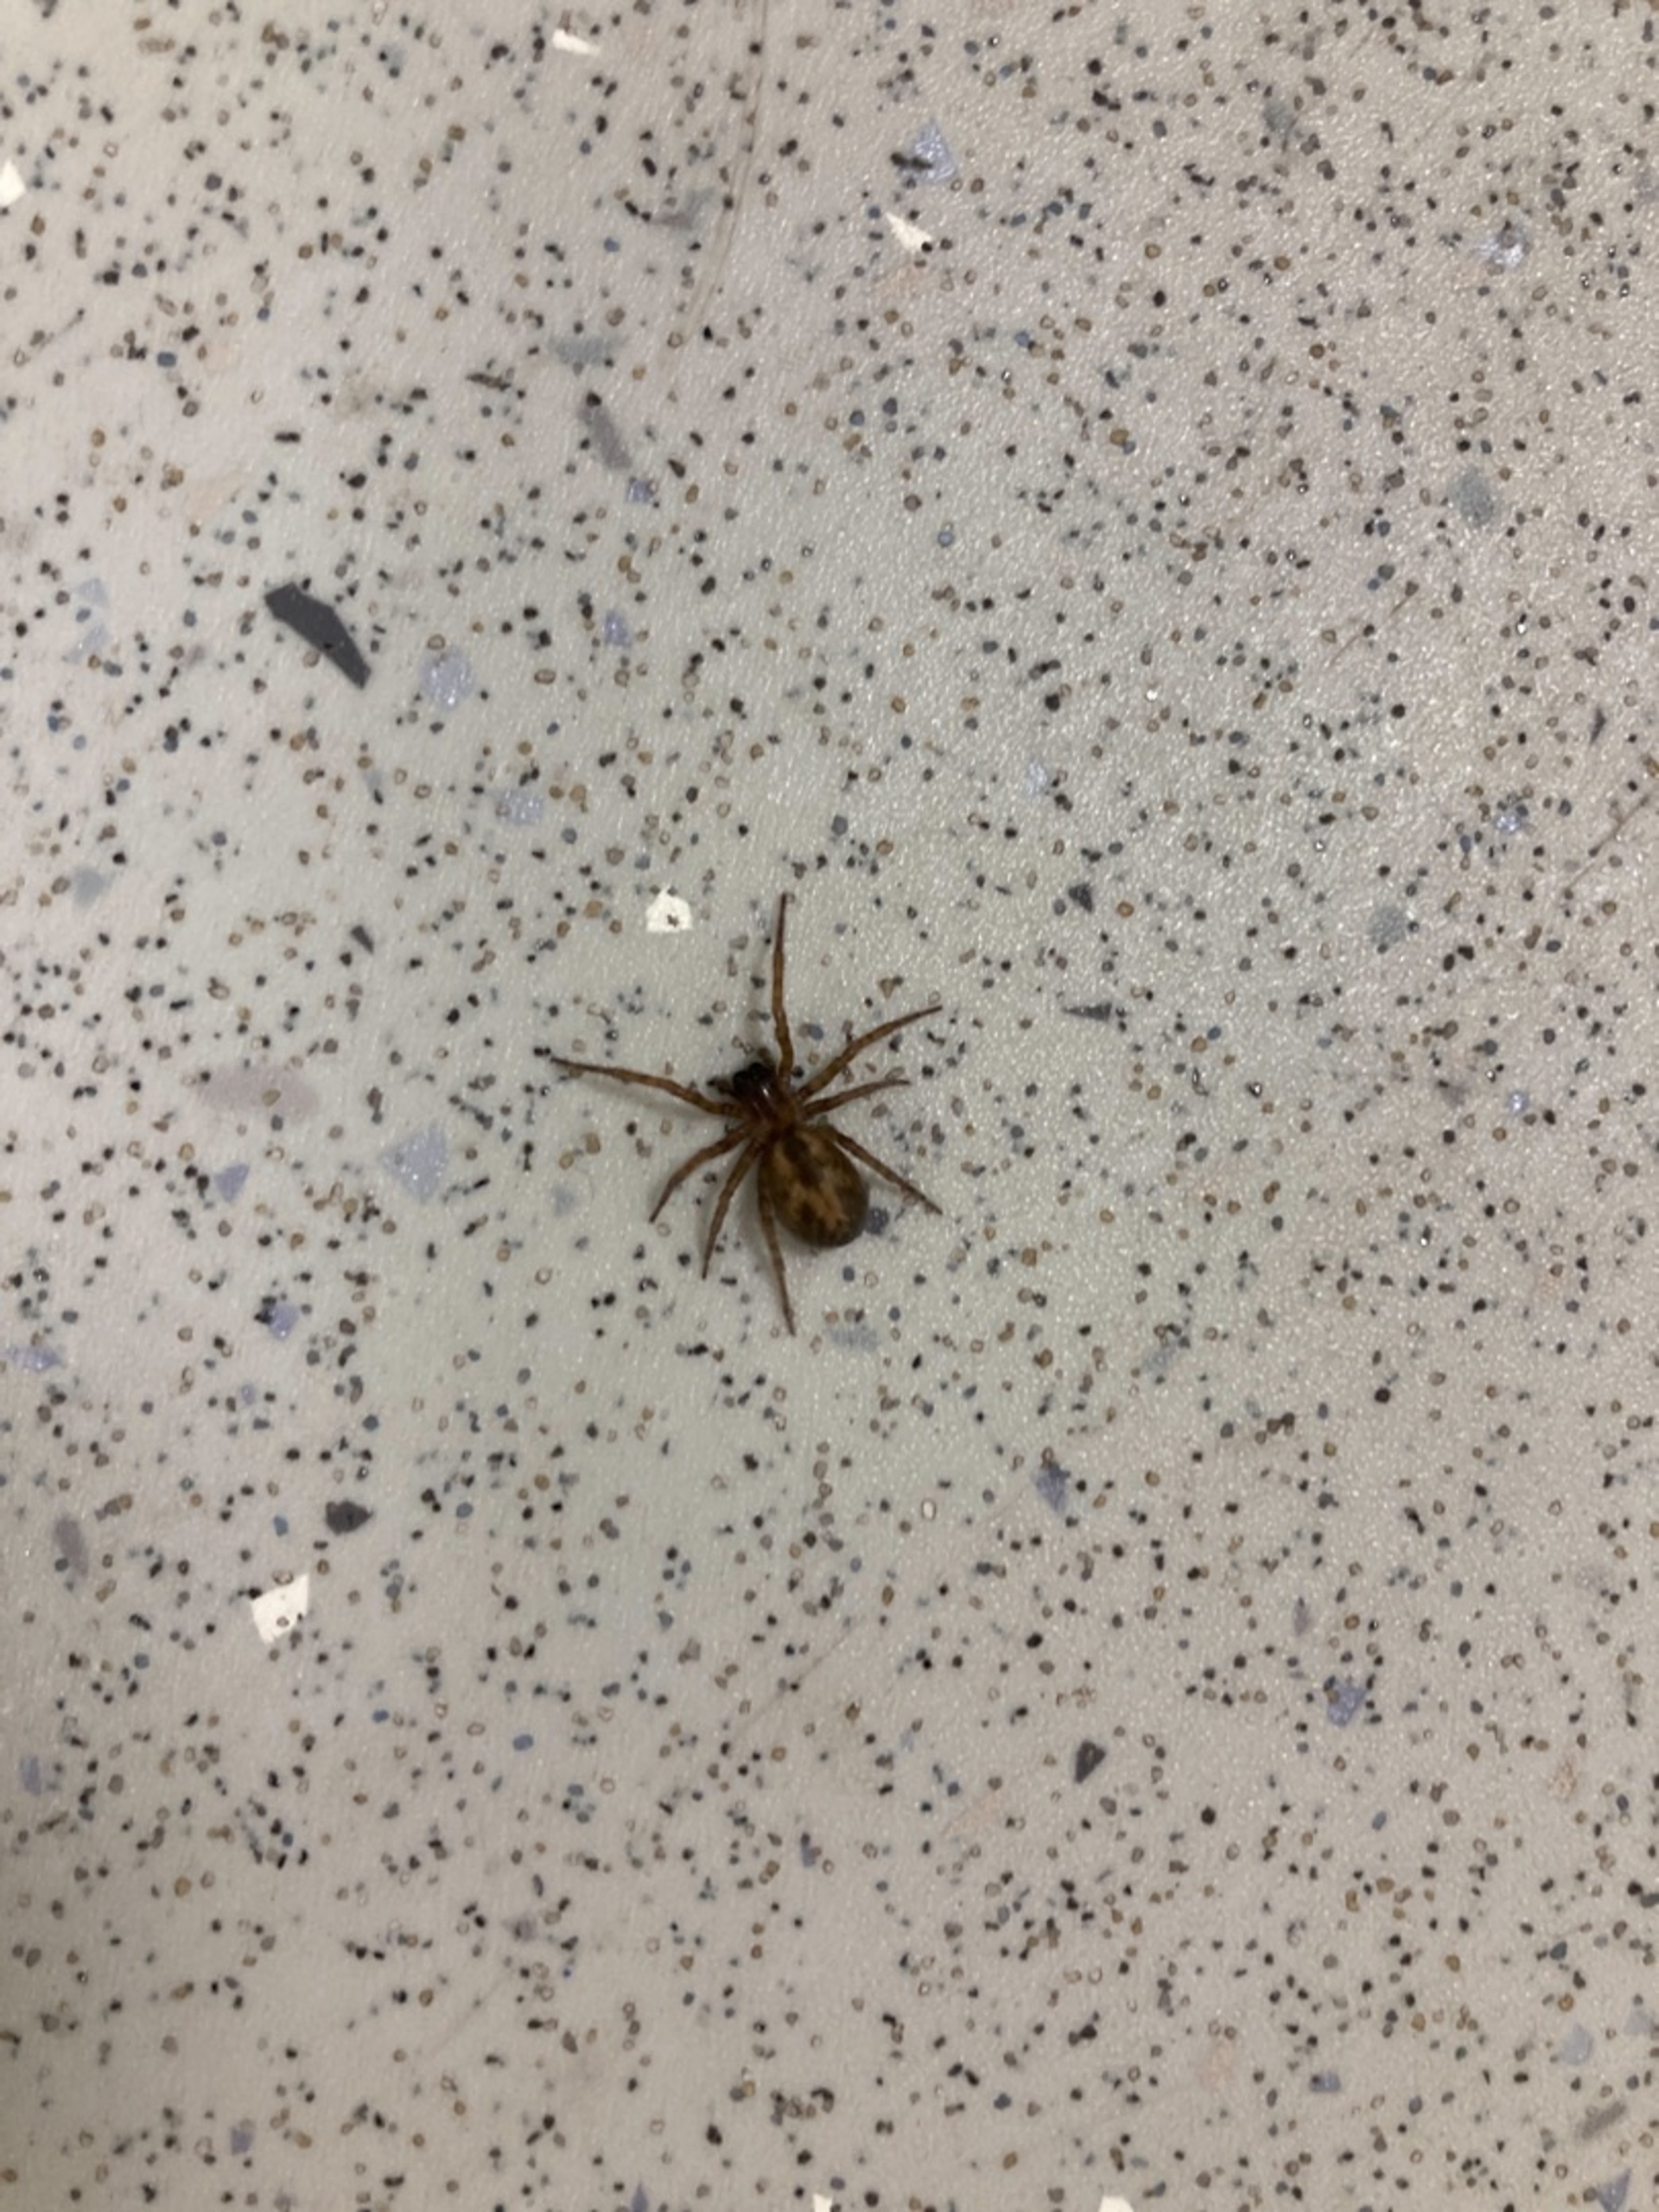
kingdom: Animalia
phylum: Arthropoda
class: Arachnida
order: Araneae
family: Amaurobiidae
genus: Amaurobius
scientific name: Amaurobius
